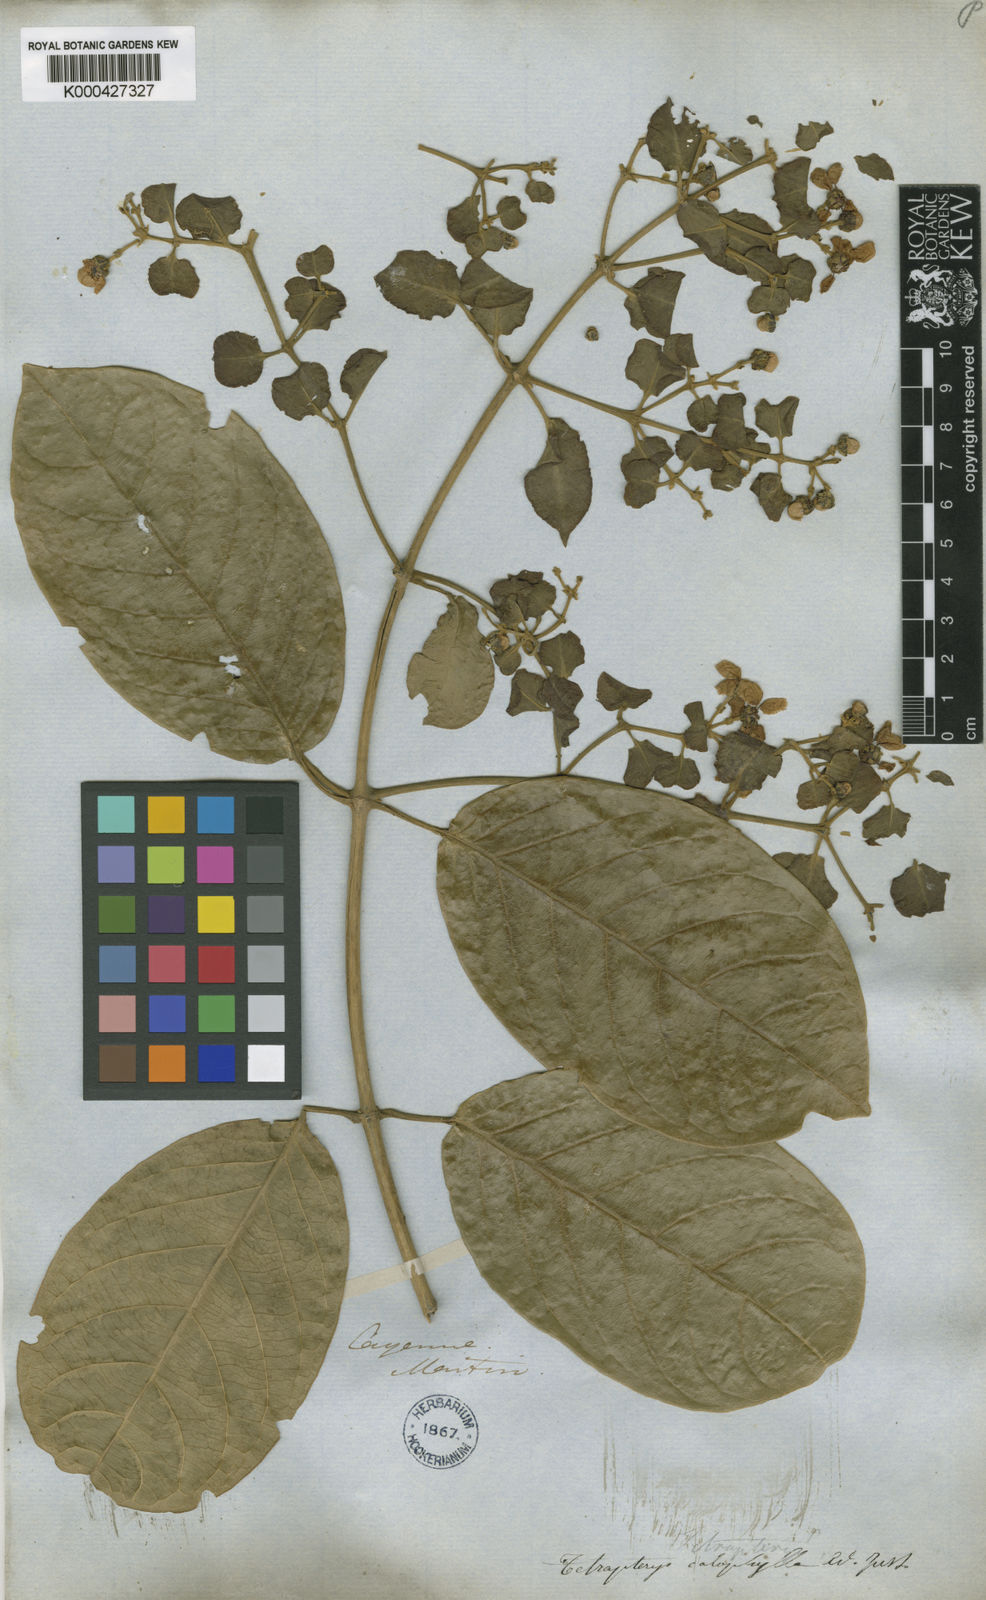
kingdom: Plantae
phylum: Tracheophyta
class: Magnoliopsida
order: Malpighiales
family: Malpighiaceae
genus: Tetrapterys
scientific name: Tetrapterys calophylla
